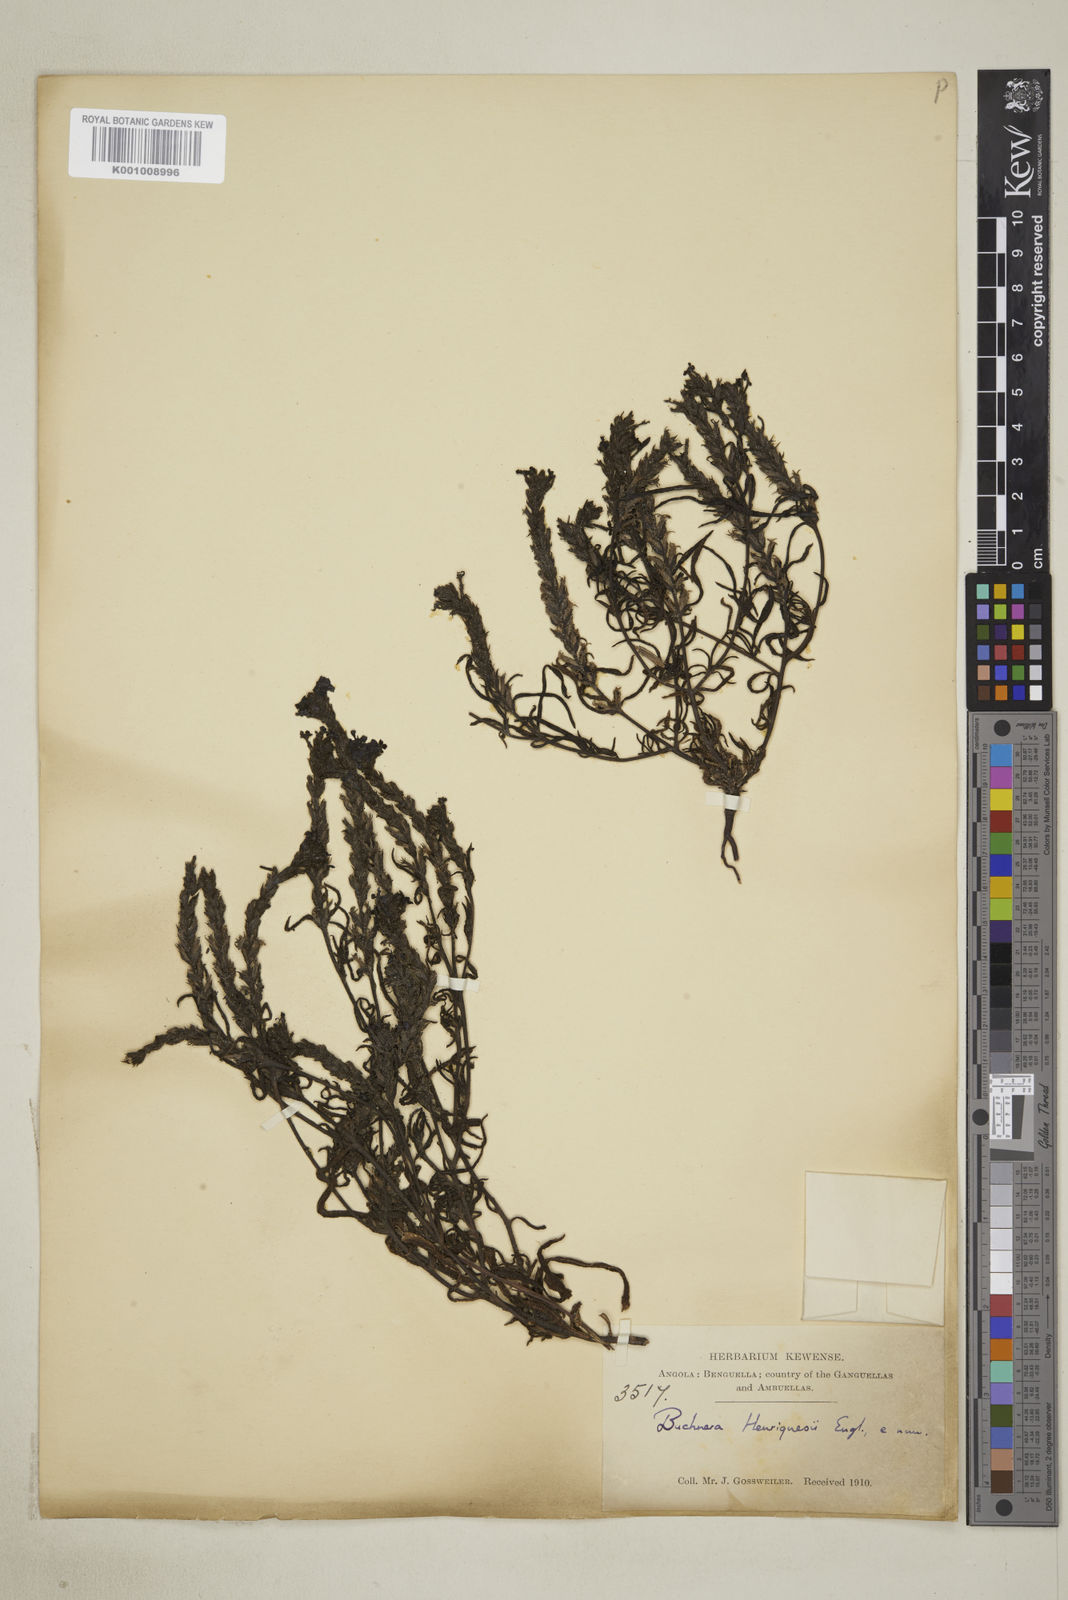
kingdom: Plantae
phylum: Tracheophyta
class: Magnoliopsida
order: Lamiales
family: Orobanchaceae
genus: Buchnera
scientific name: Buchnera henriquesii
